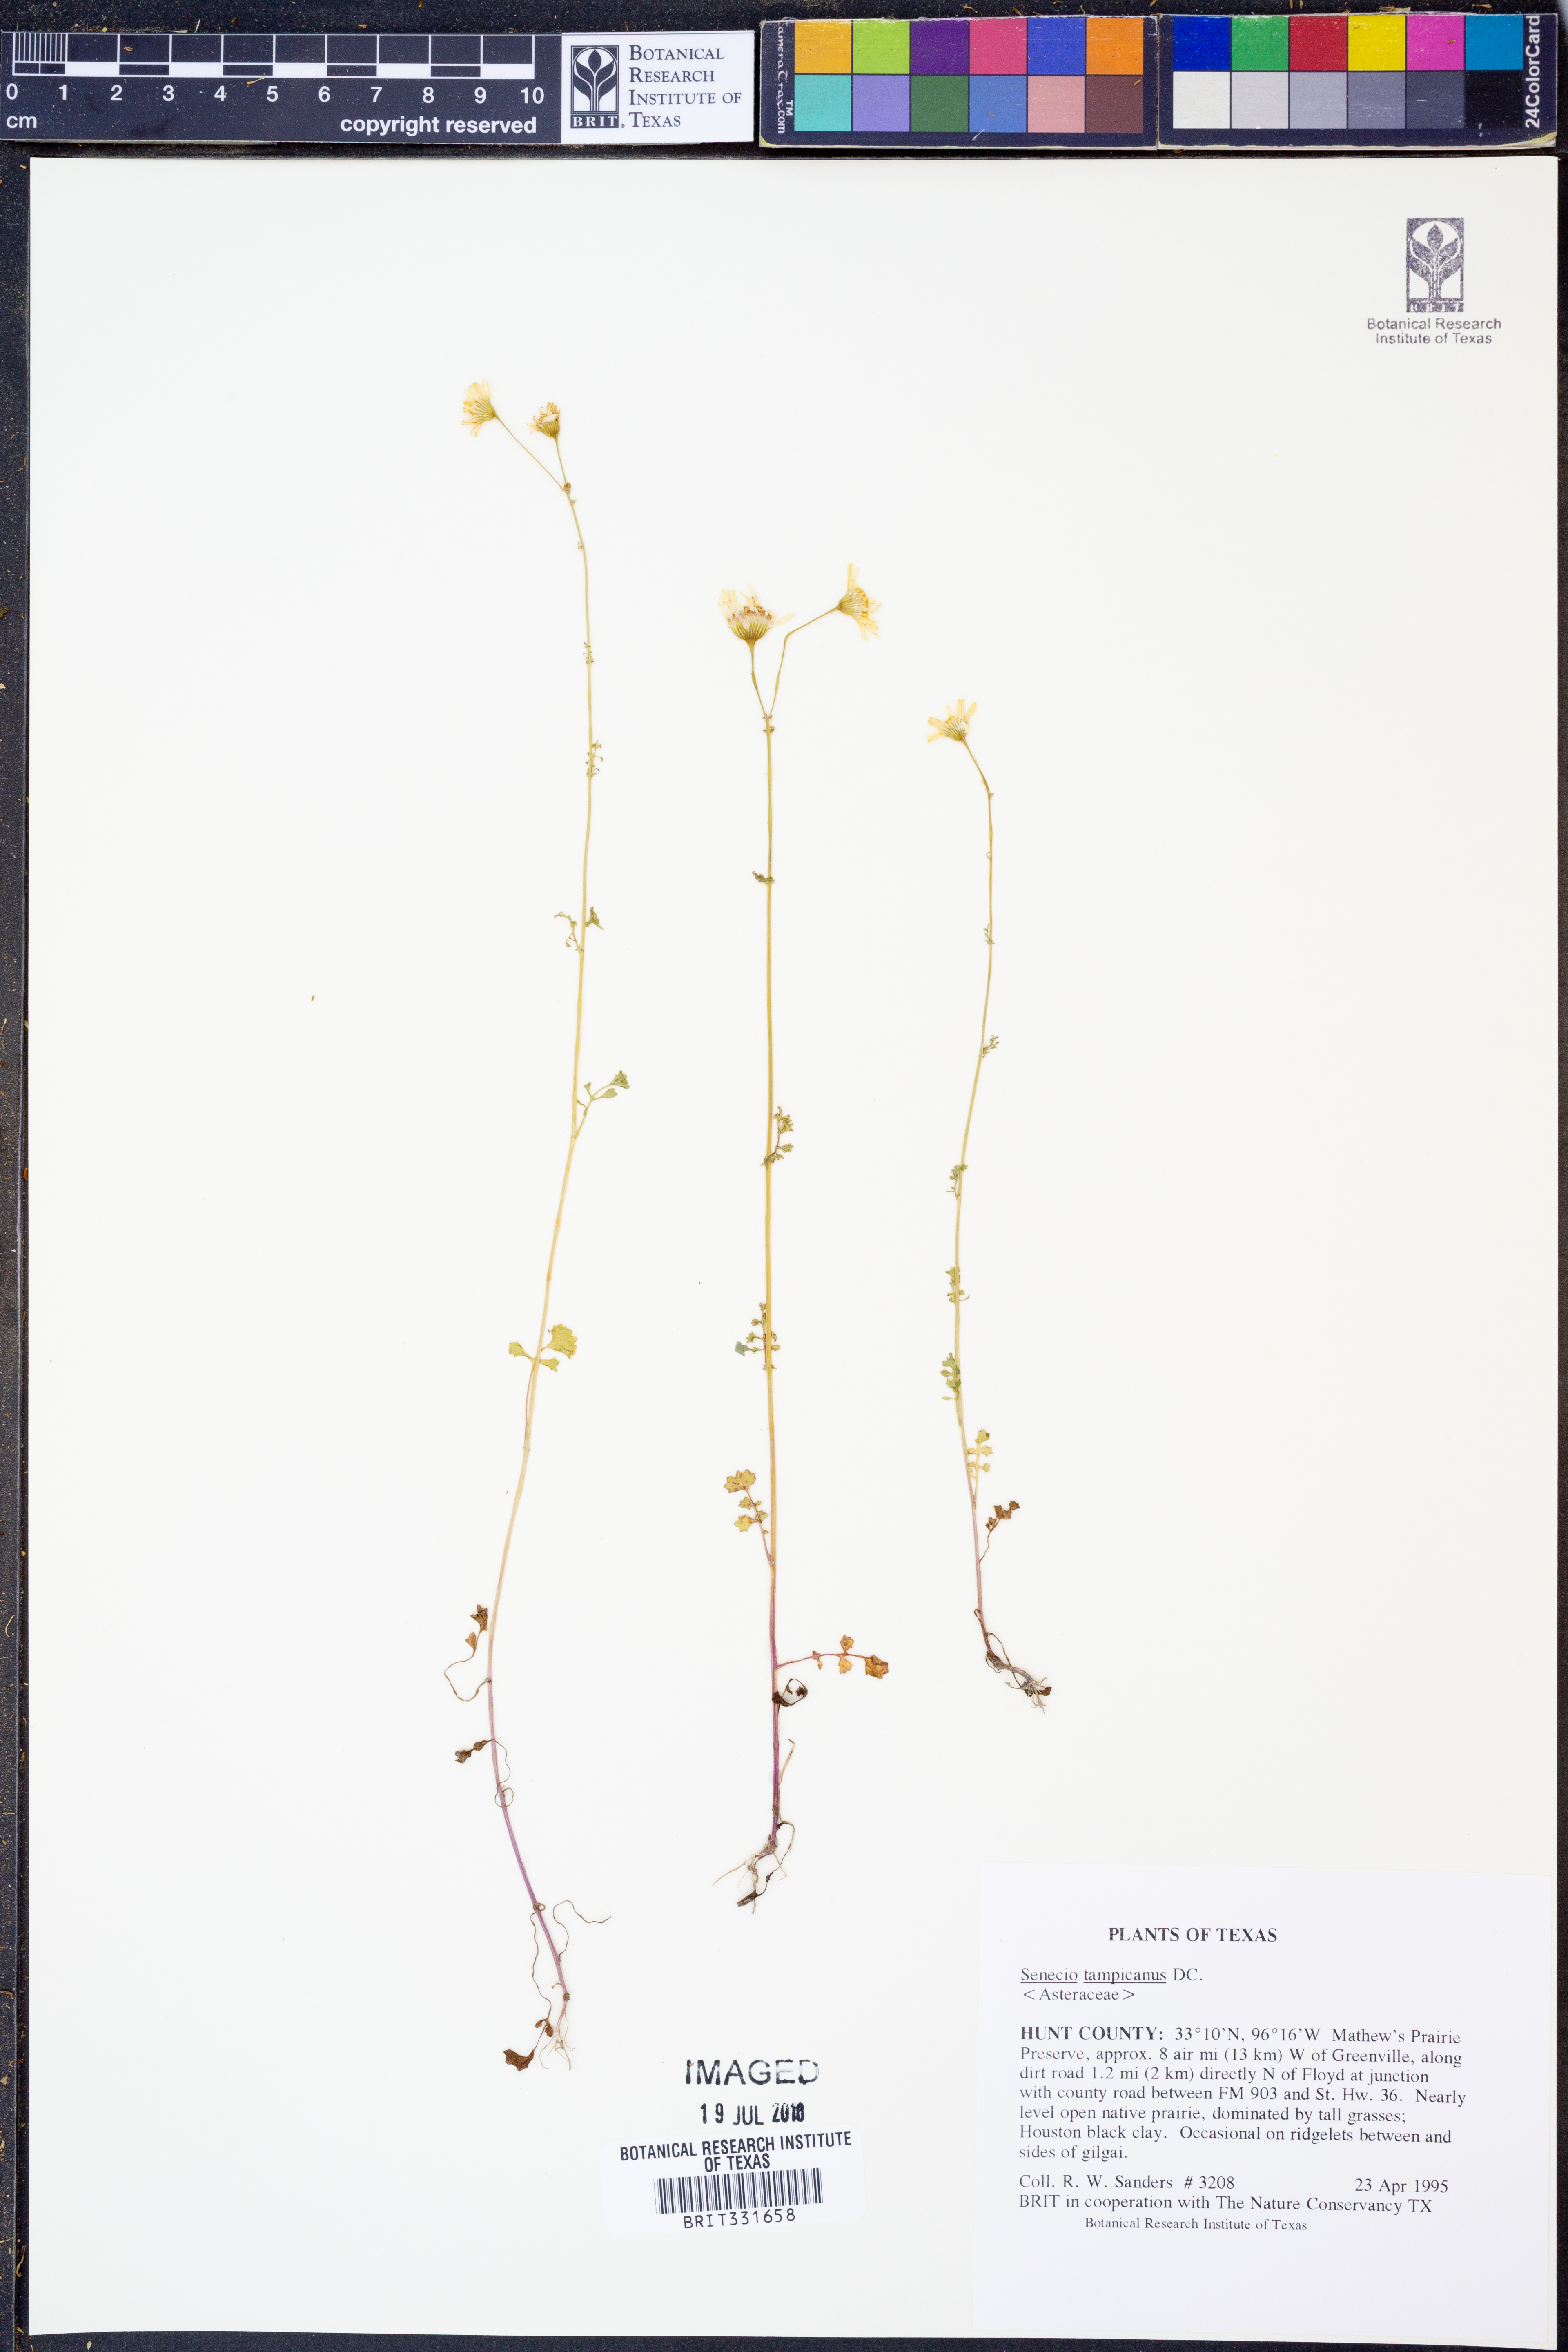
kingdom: Plantae
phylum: Tracheophyta
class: Magnoliopsida
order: Asterales
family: Asteraceae
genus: Packera
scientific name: Packera tampicana
